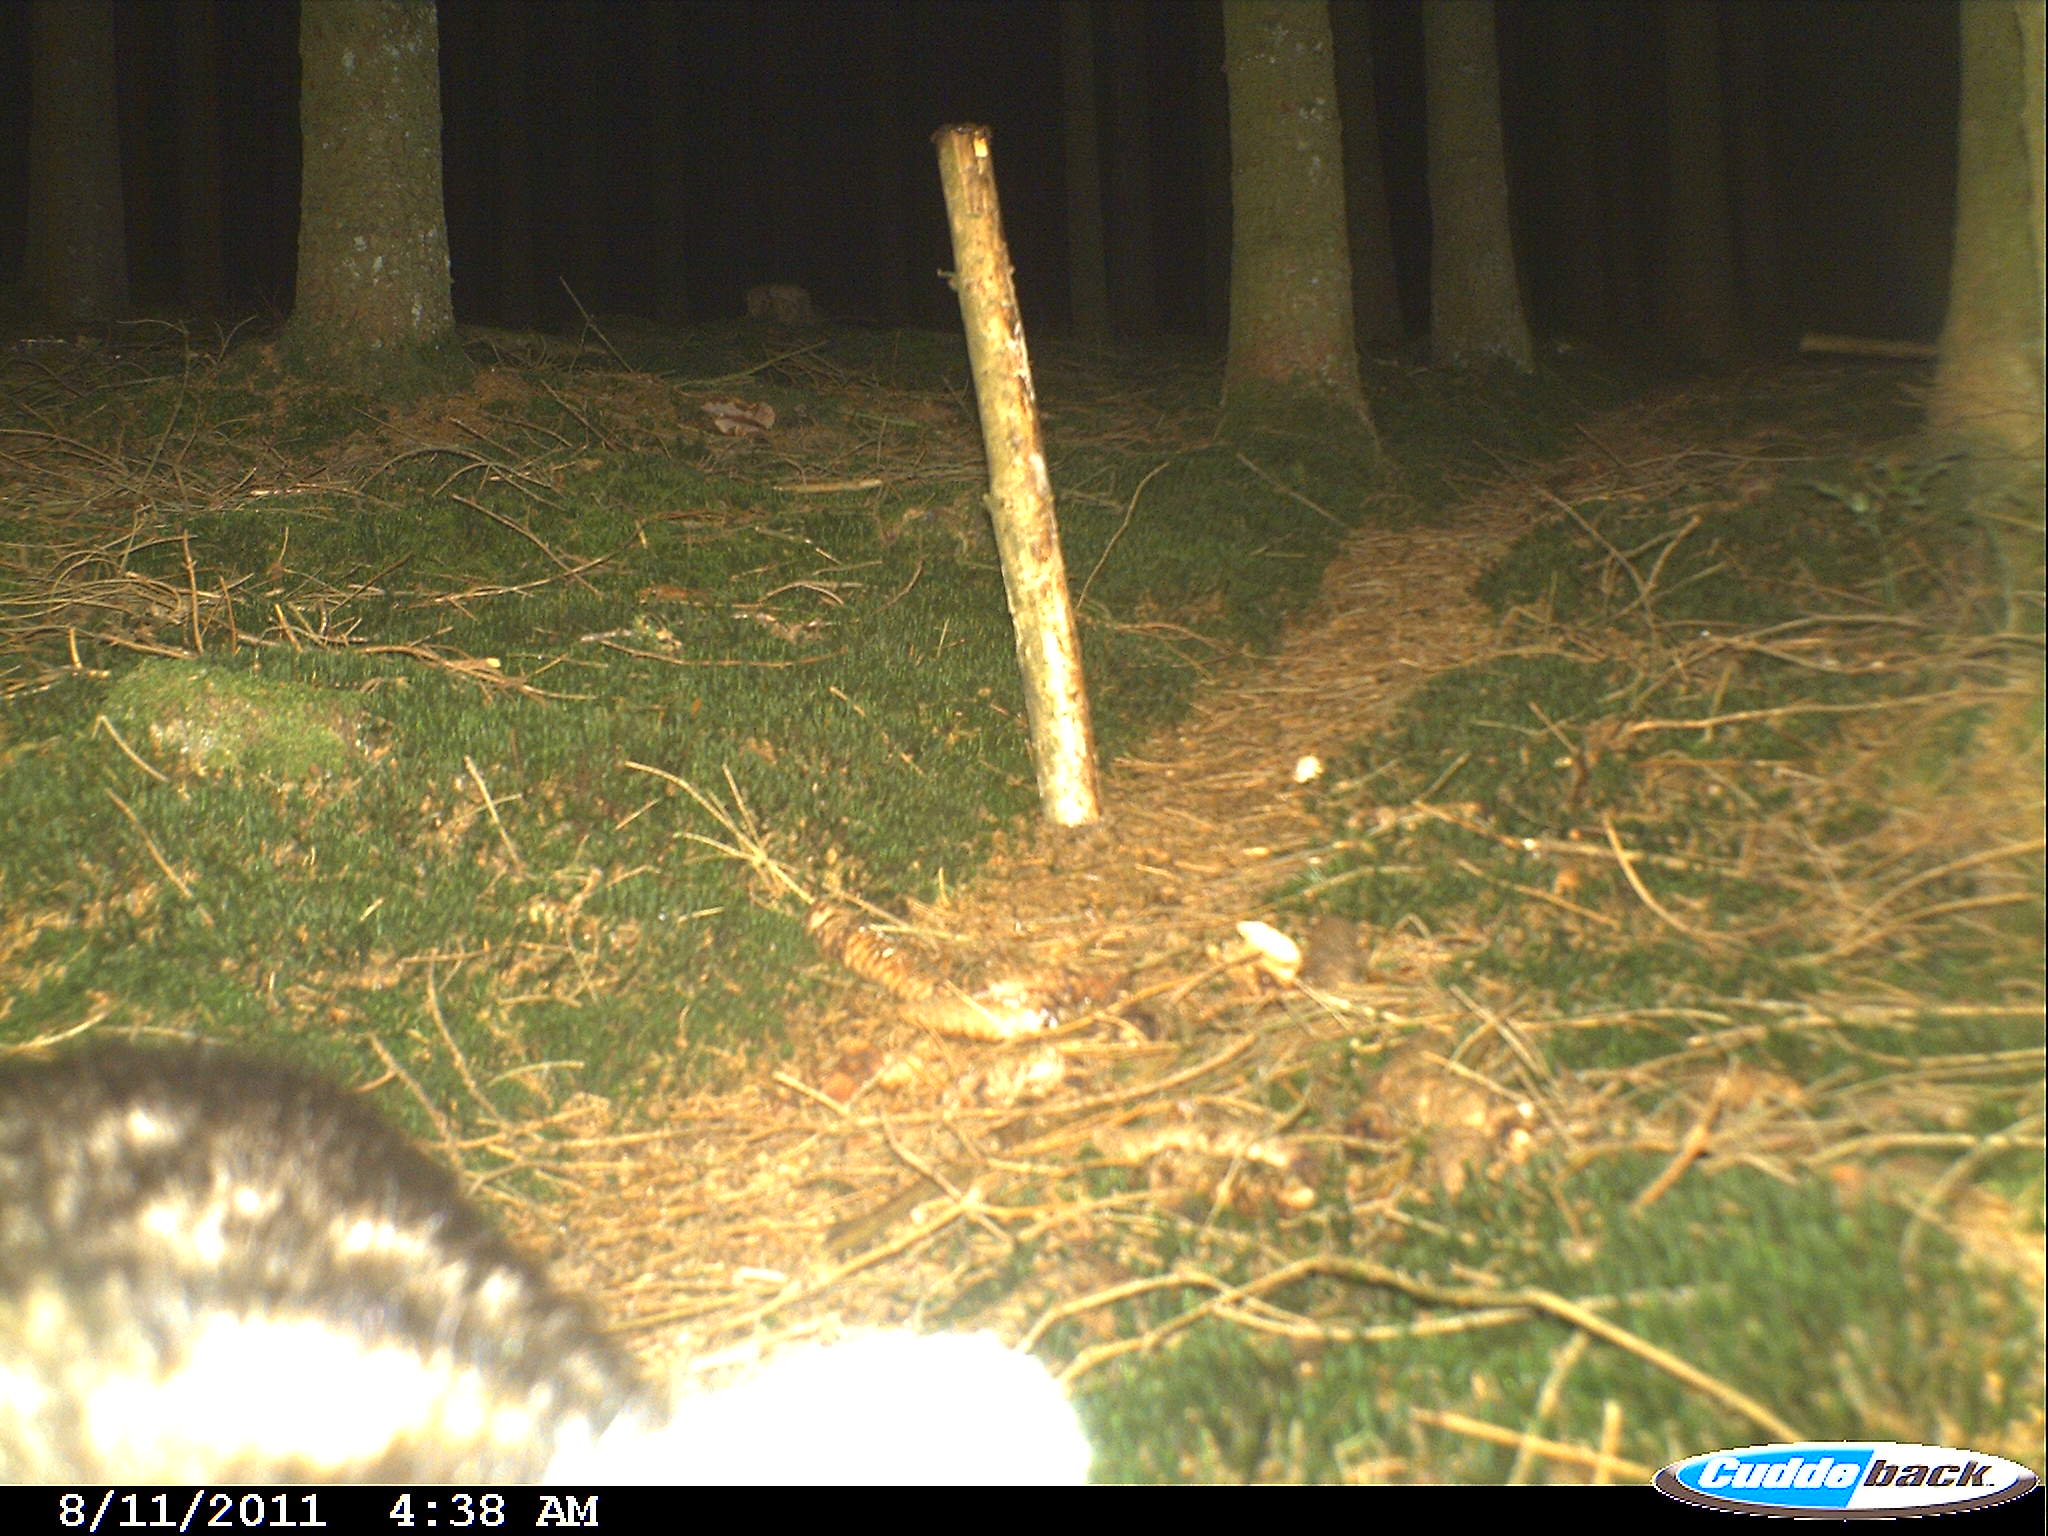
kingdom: Animalia
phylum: Chordata
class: Mammalia
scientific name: Mammalia
